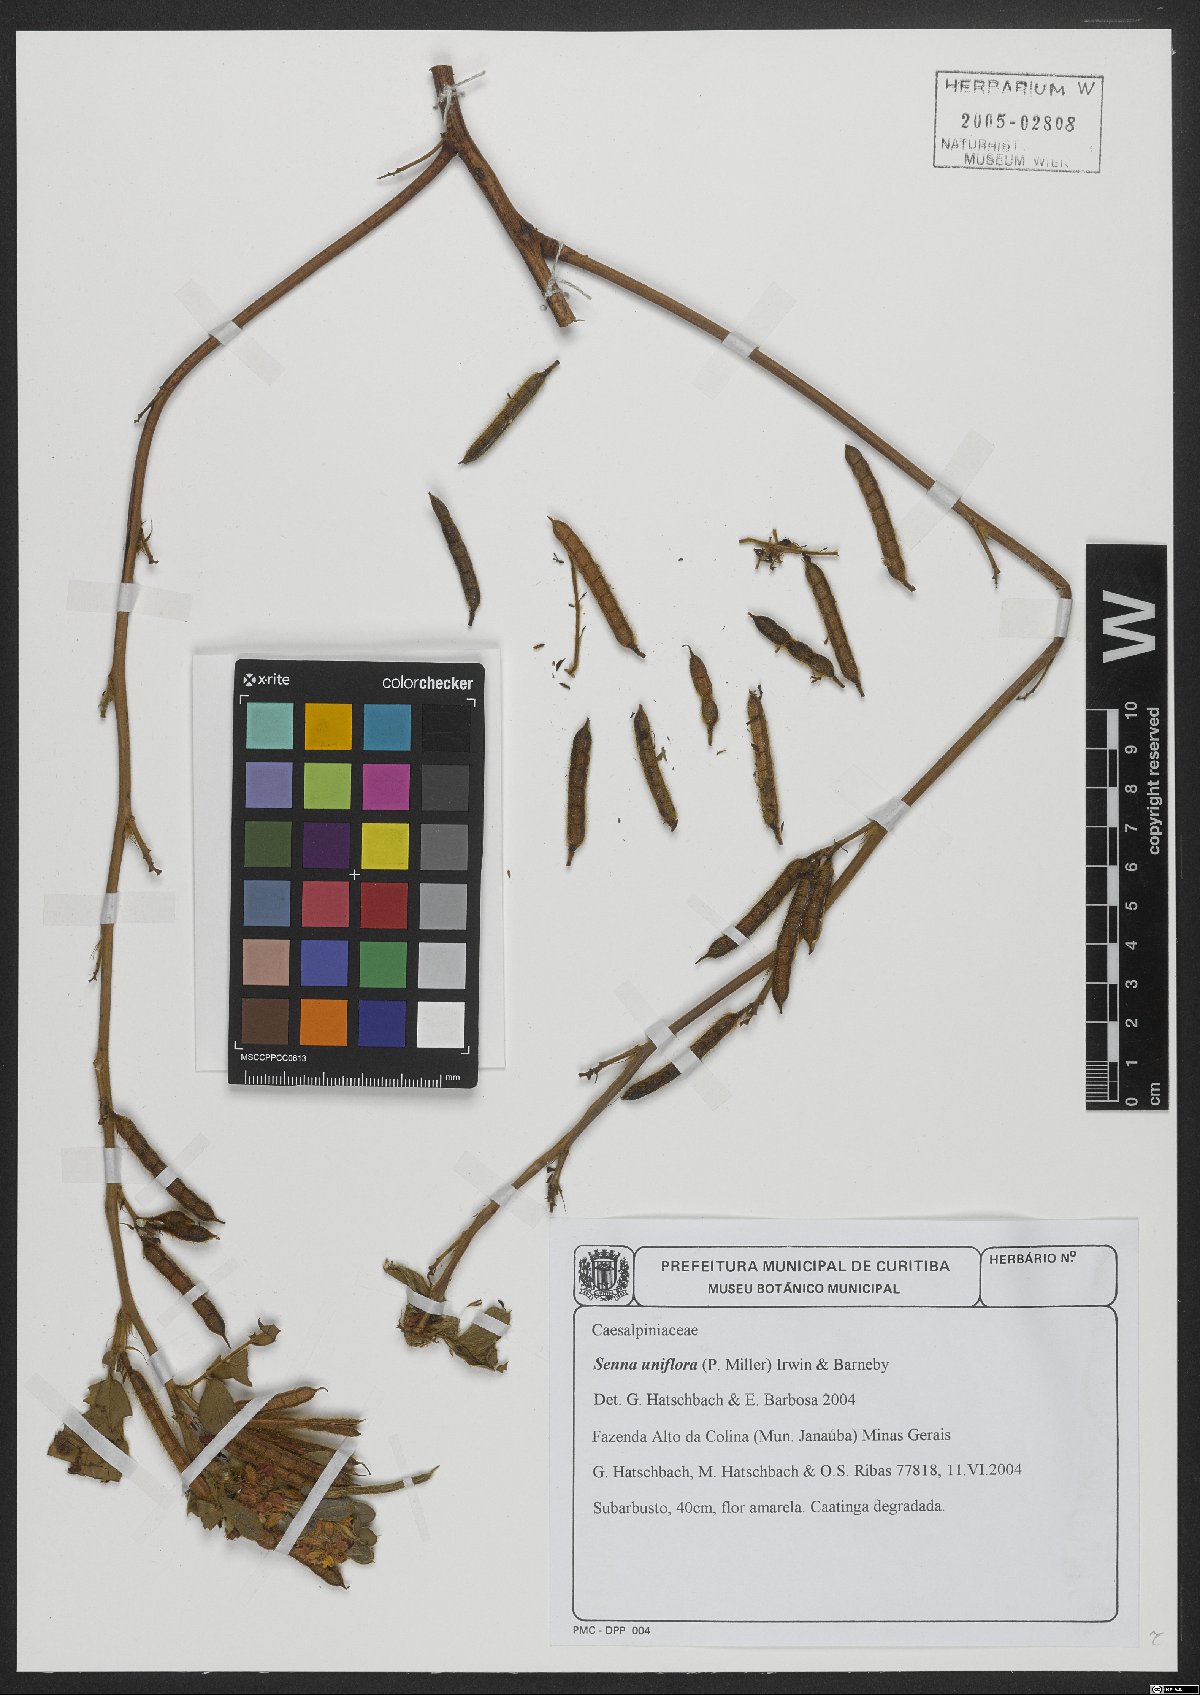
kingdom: Plantae
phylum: Tracheophyta
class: Magnoliopsida
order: Fabales
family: Fabaceae
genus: Senna
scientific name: Senna uniflora
